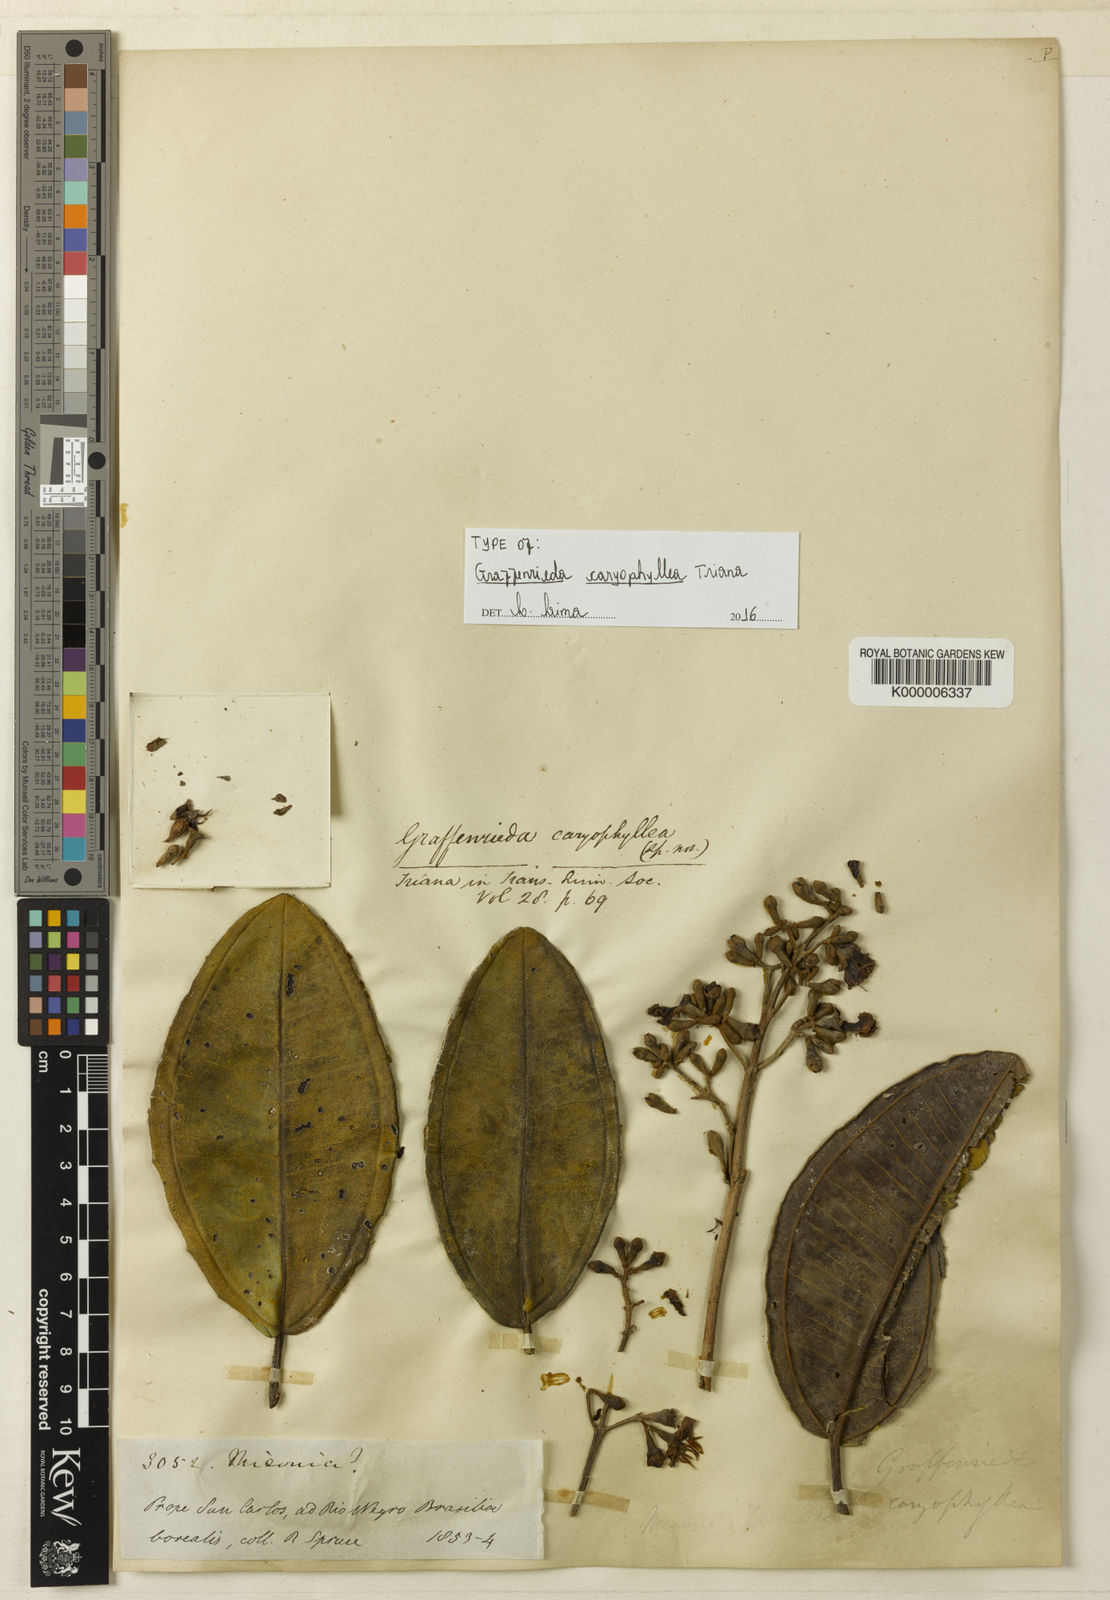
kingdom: Plantae
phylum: Tracheophyta
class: Magnoliopsida
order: Myrtales
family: Melastomataceae
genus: Graffenrieda
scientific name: Graffenrieda caryophyllea
